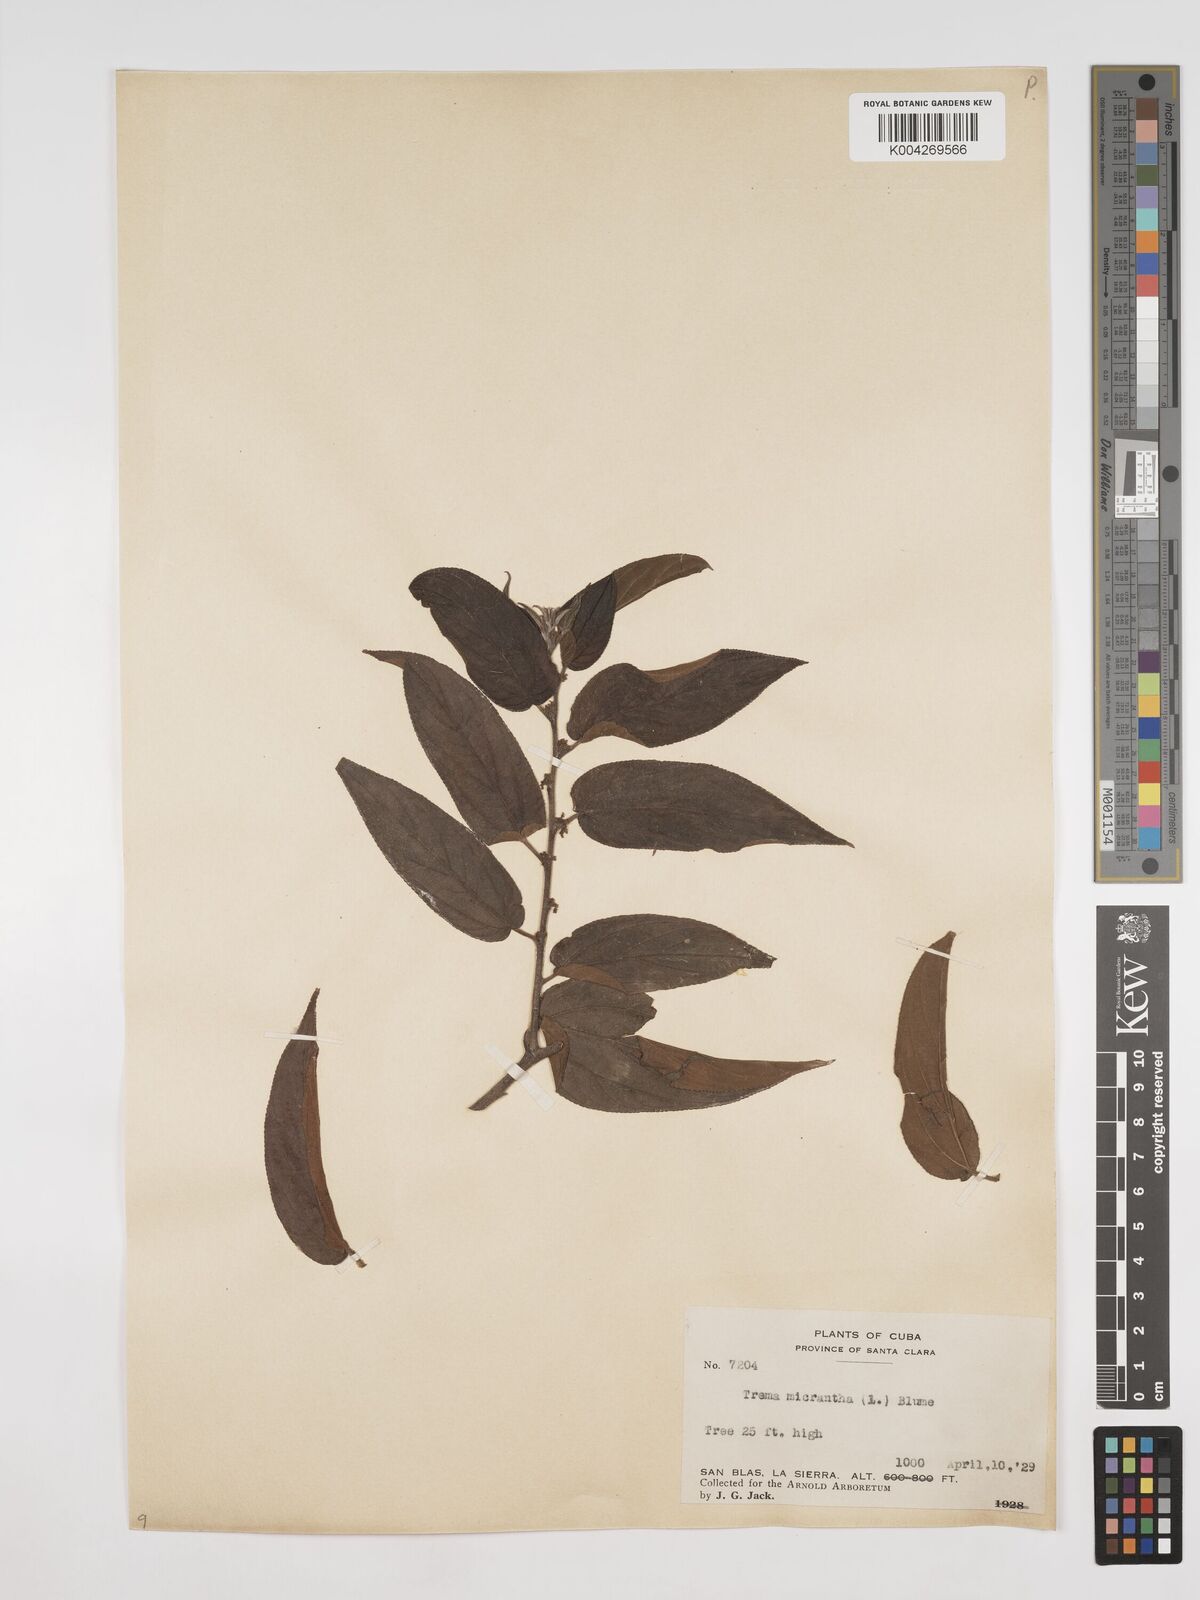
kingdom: Plantae
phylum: Tracheophyta
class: Magnoliopsida
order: Rosales
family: Cannabaceae
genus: Trema
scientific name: Trema micranthum
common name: Jamaican nettletree
